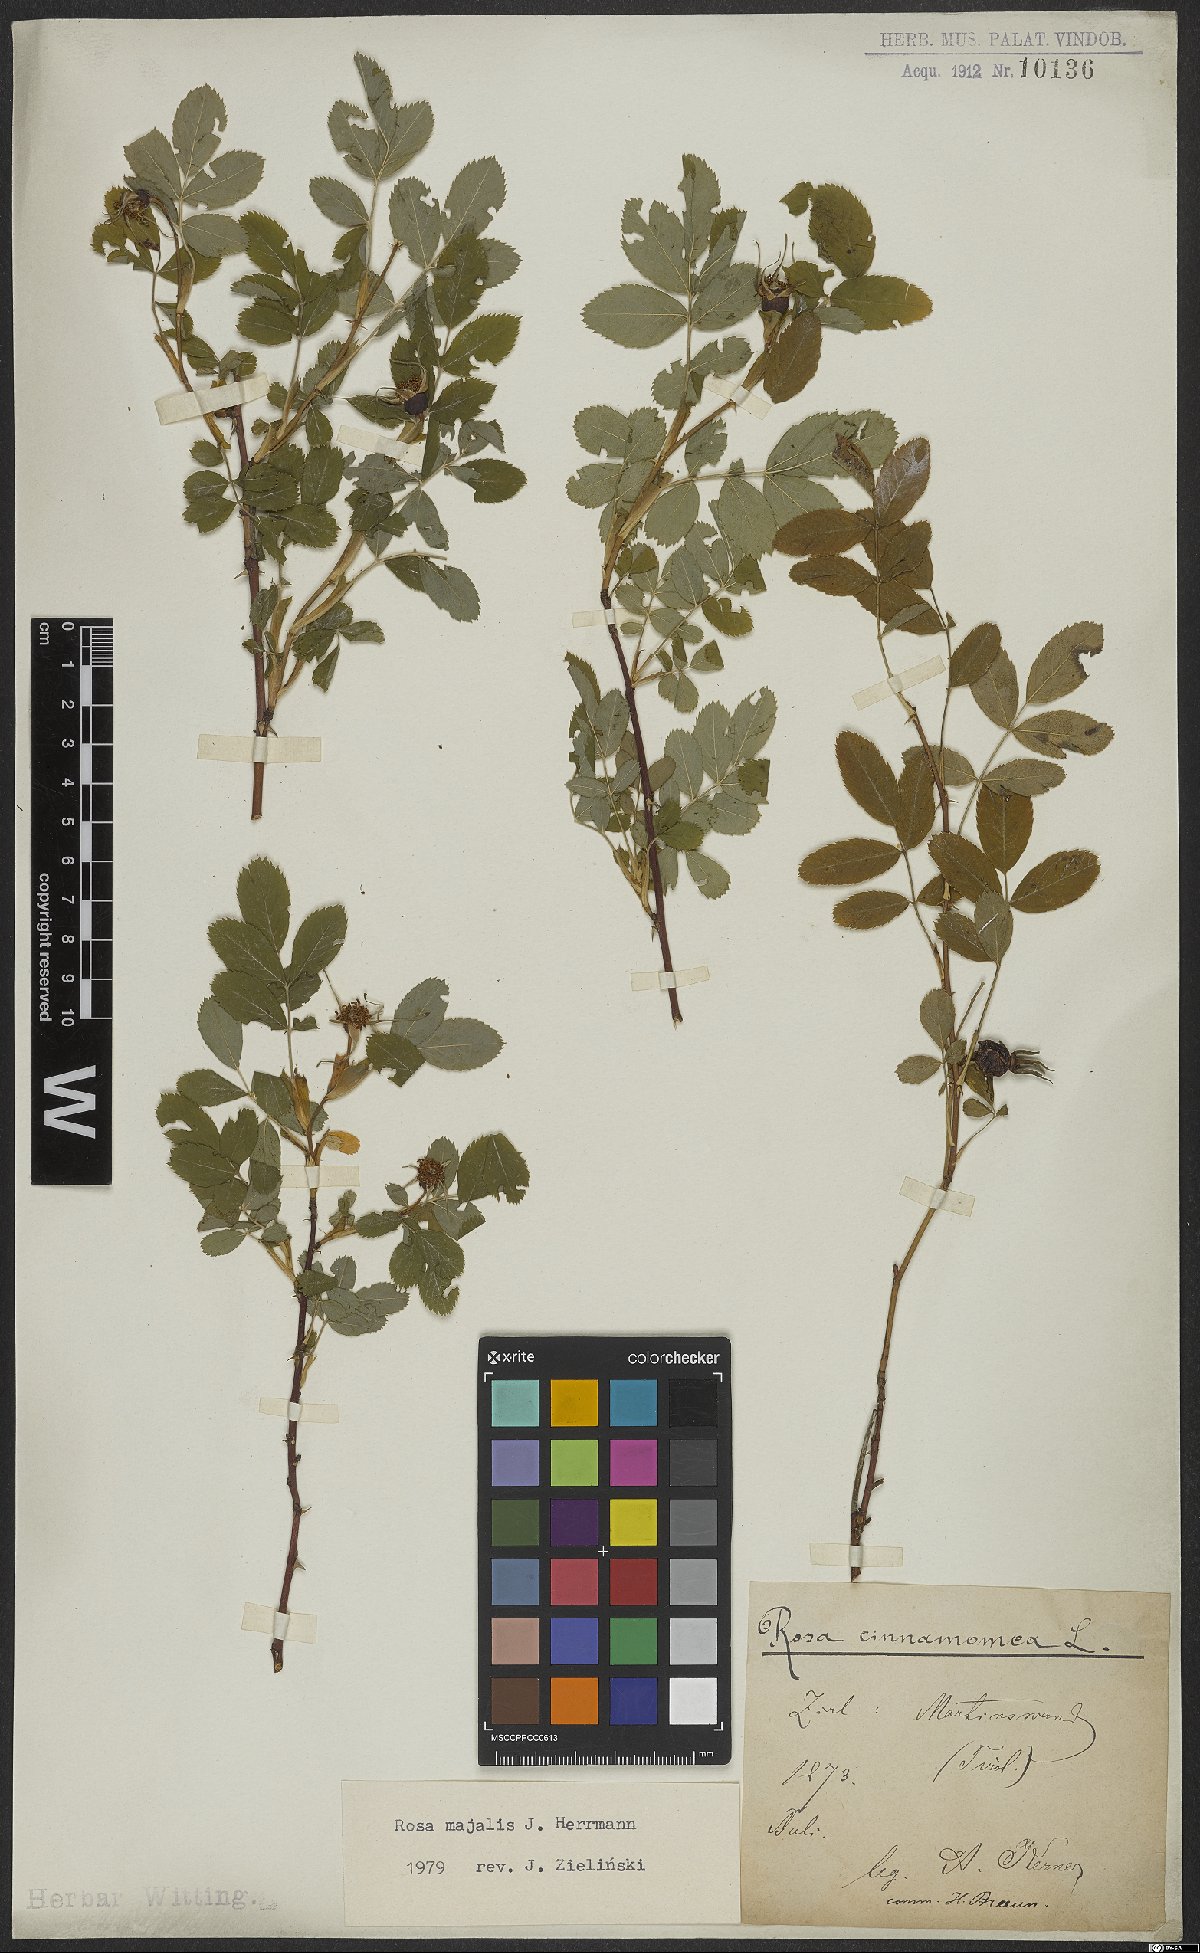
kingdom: Plantae
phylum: Tracheophyta
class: Magnoliopsida
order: Rosales
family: Rosaceae
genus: Rosa
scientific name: Rosa majalis
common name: Cinnamon rose
